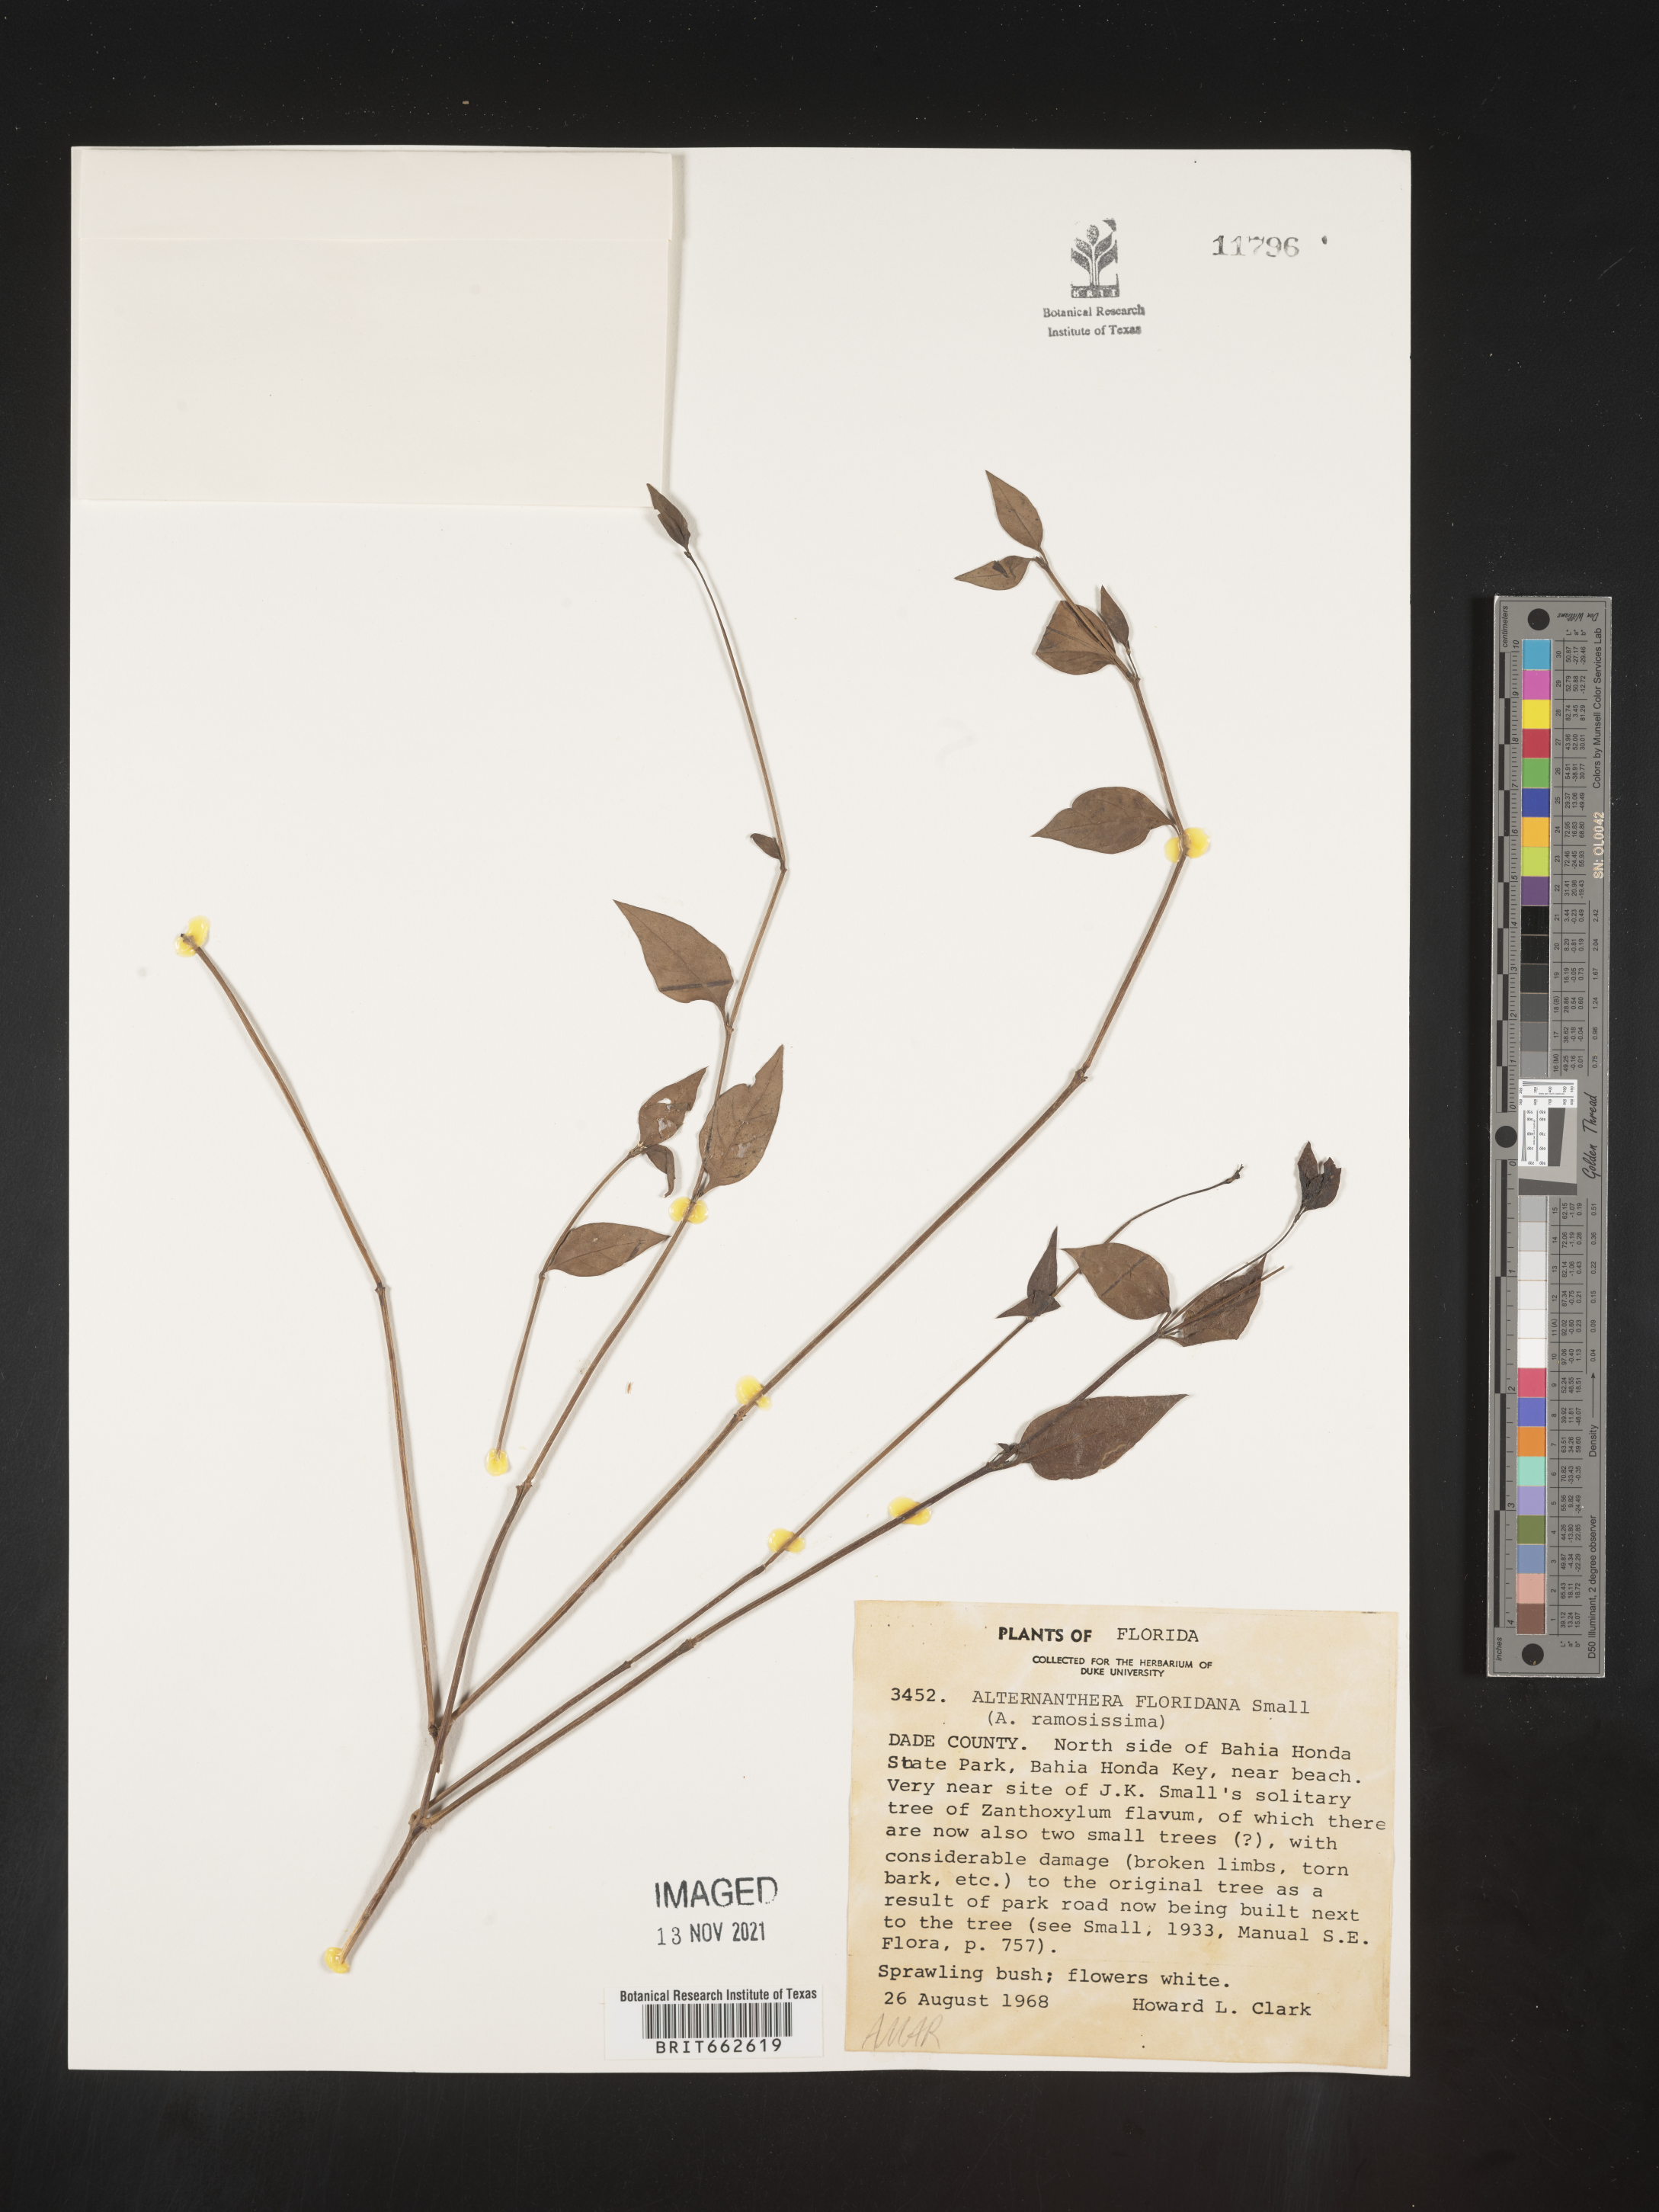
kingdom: Plantae
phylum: Tracheophyta
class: Magnoliopsida
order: Caryophyllales
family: Amaranthaceae
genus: Alternanthera
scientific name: Alternanthera ramosissima
